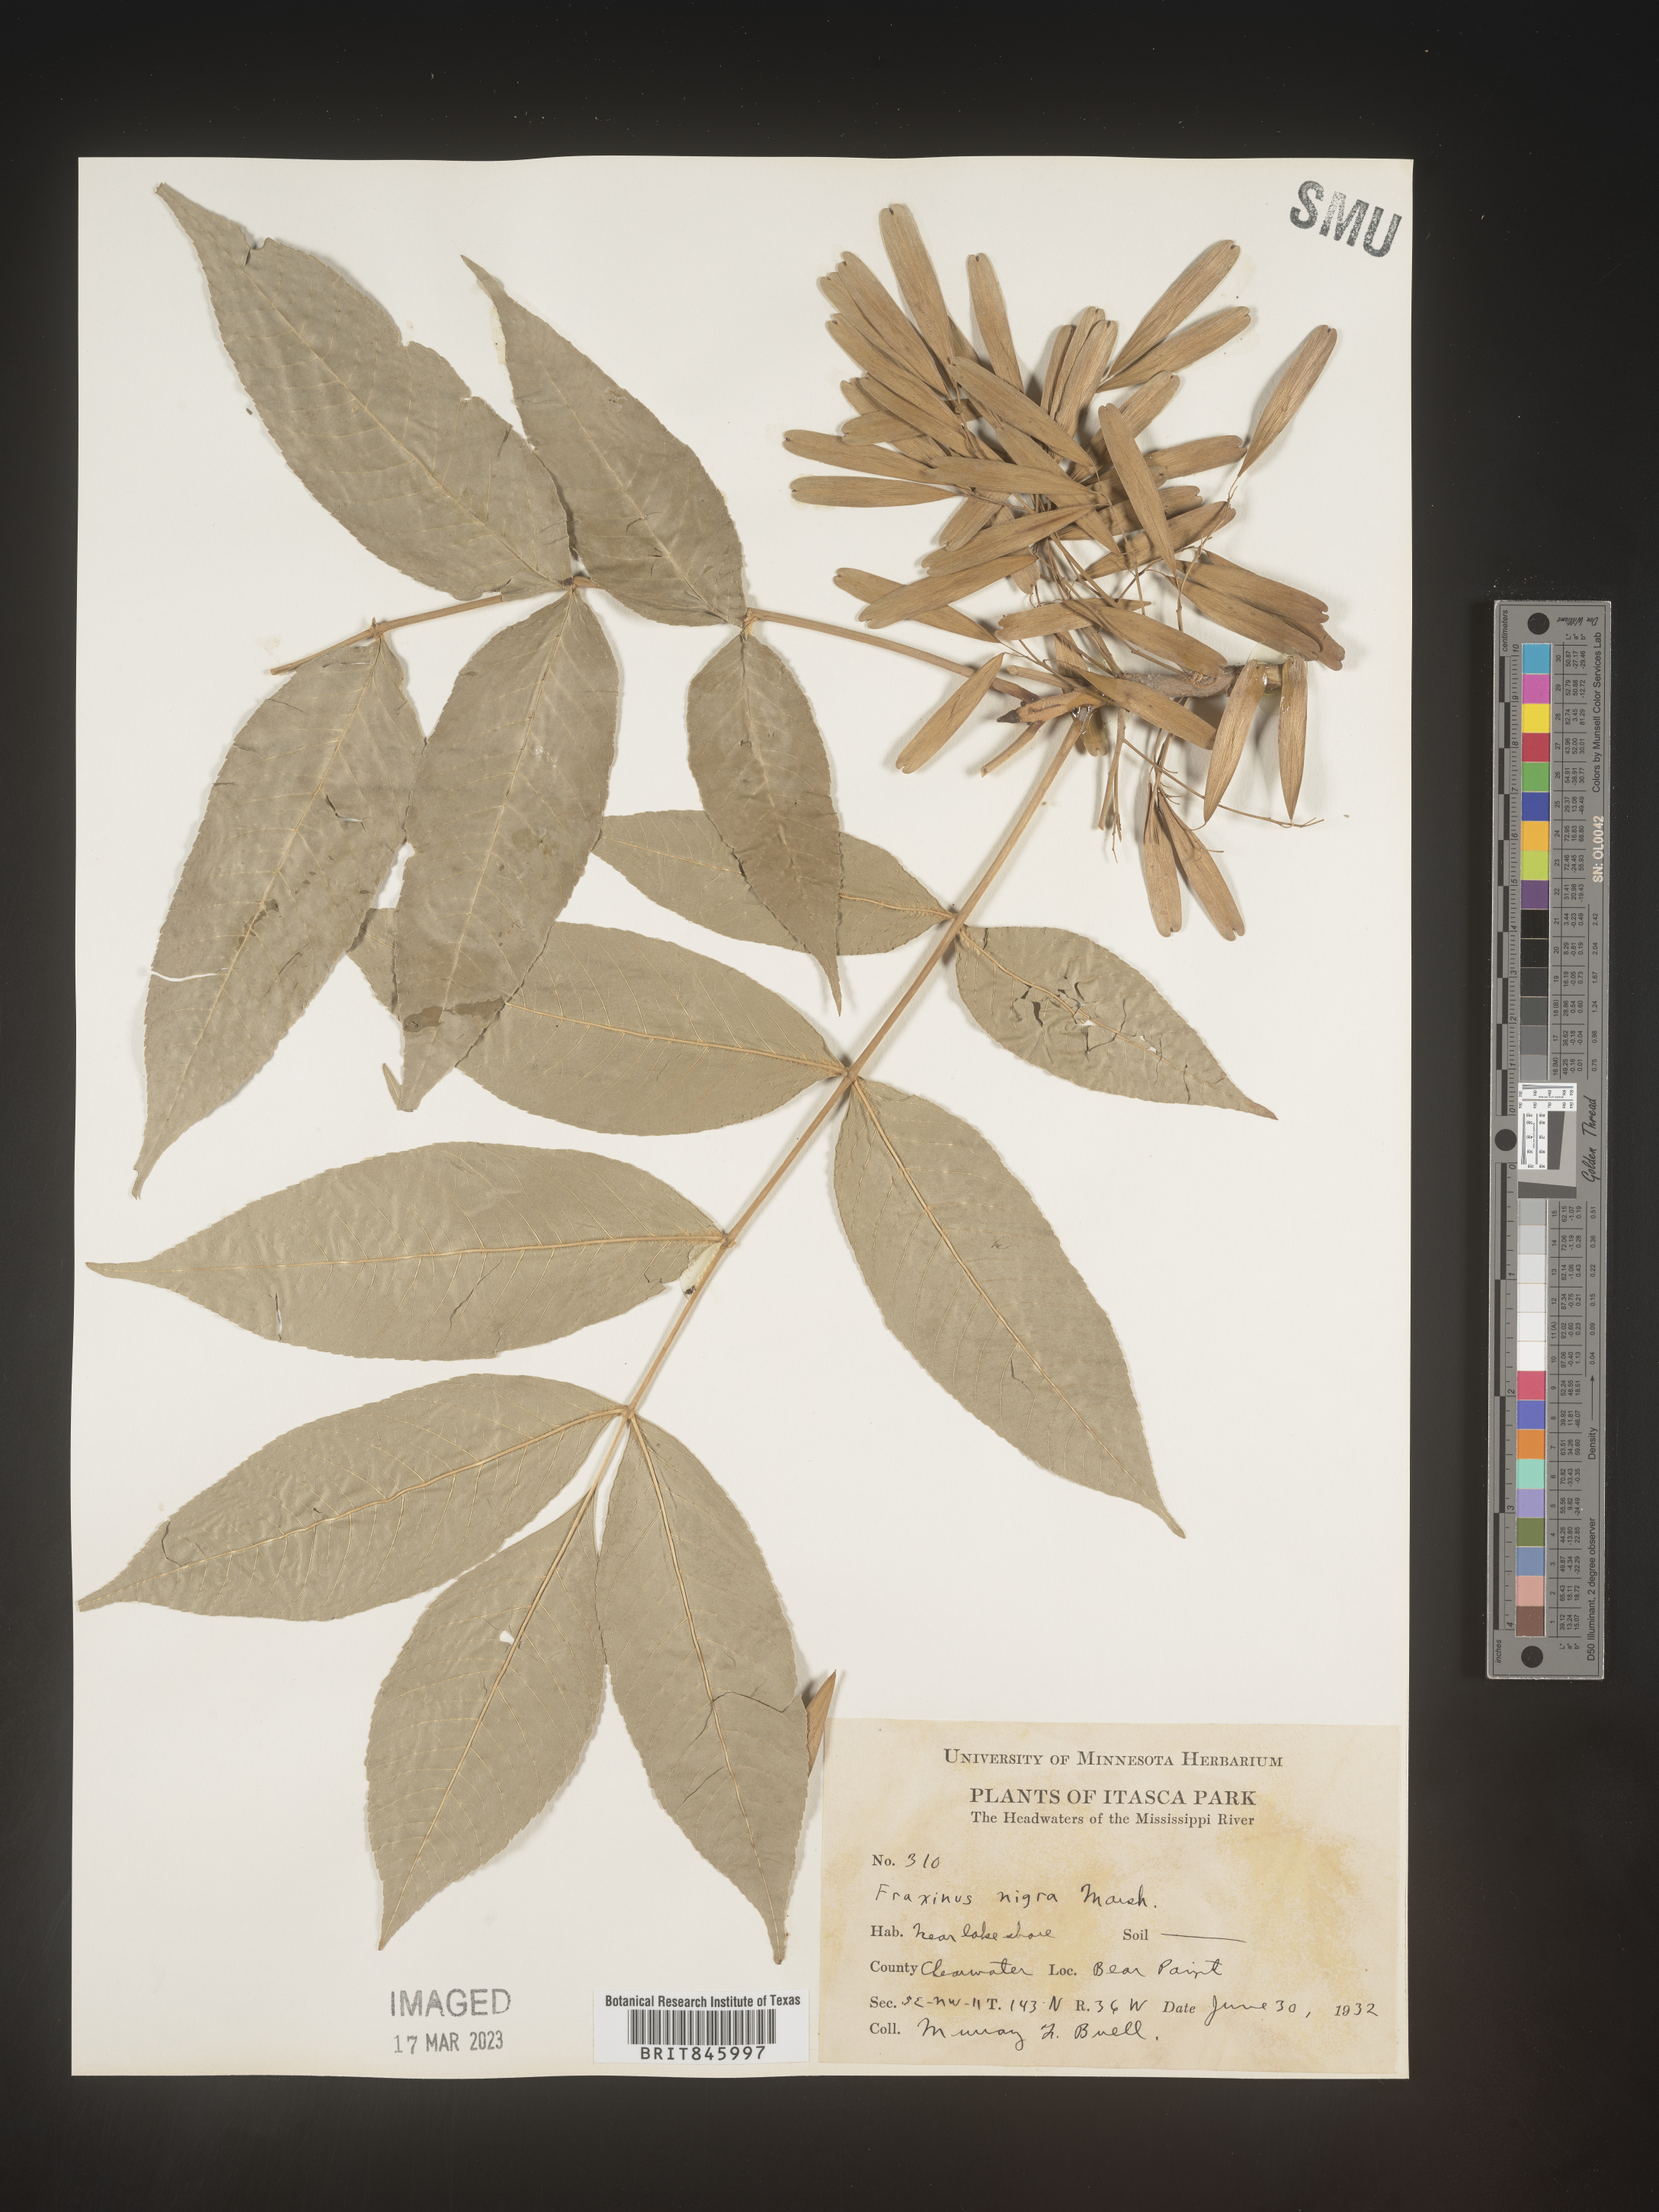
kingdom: Plantae
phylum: Tracheophyta
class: Magnoliopsida
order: Lamiales
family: Oleaceae
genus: Fraxinus
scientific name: Fraxinus nigra
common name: Black ash
